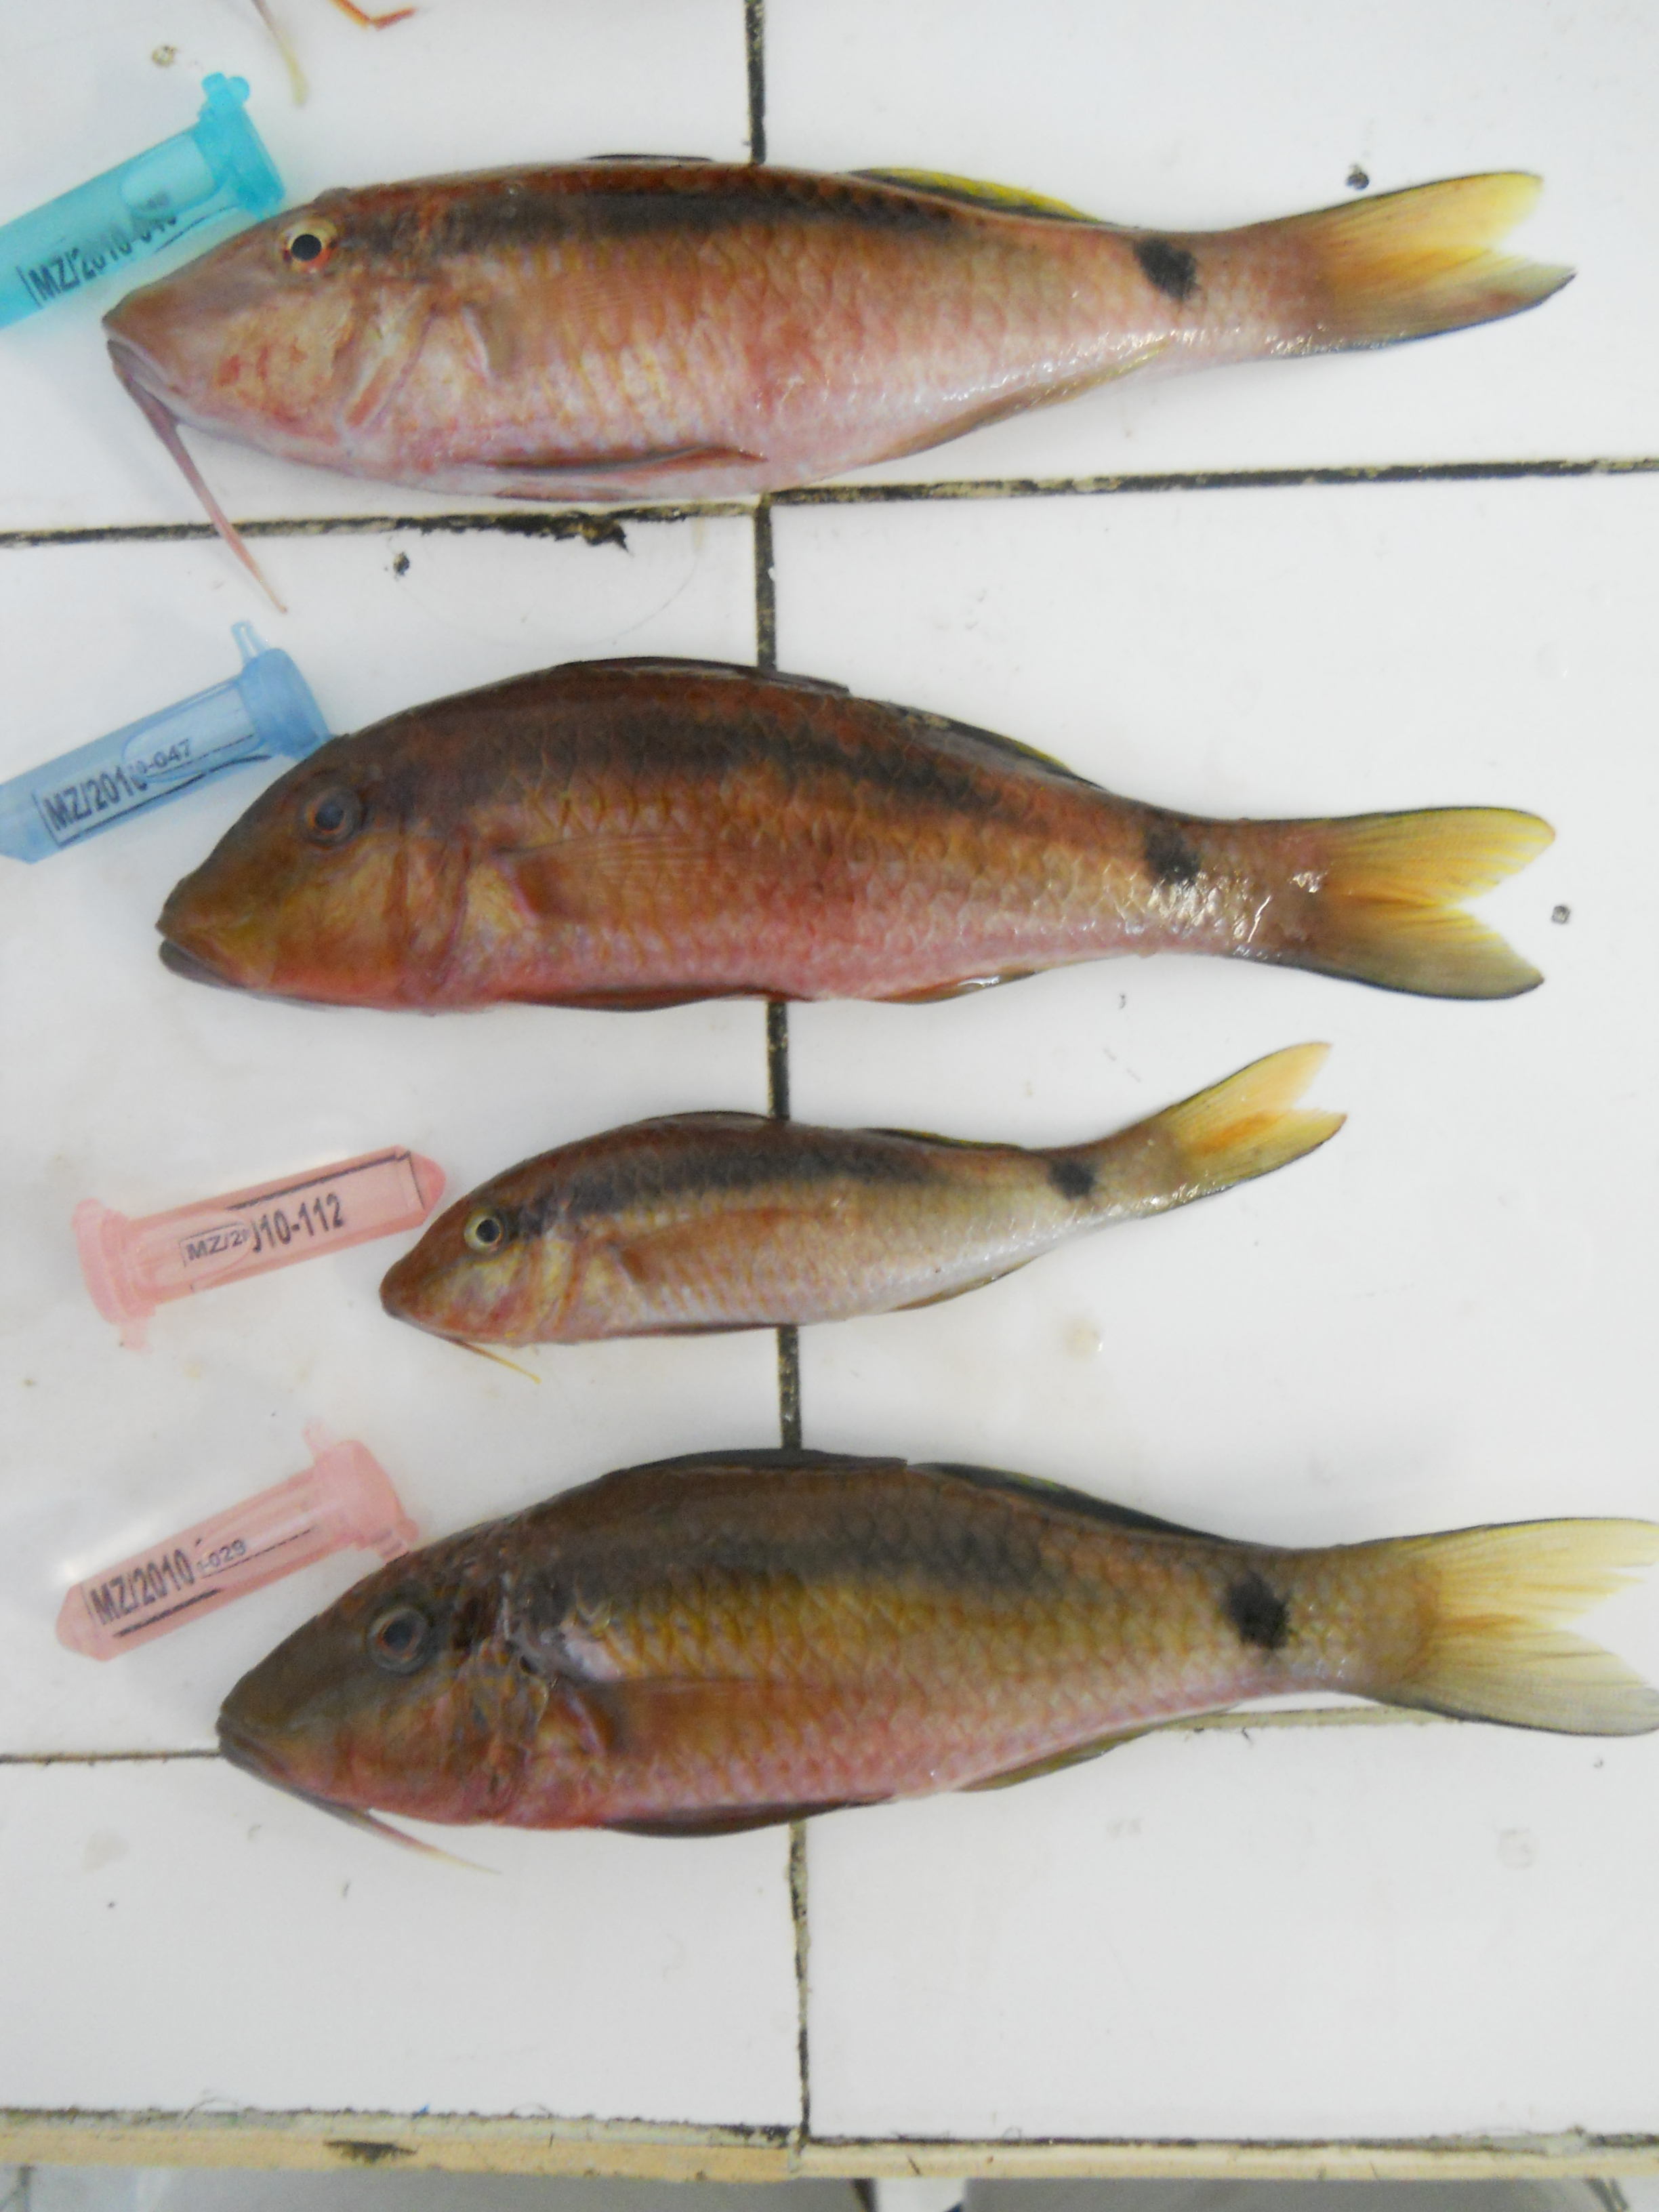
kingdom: Animalia
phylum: Chordata
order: Perciformes
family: Mullidae
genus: Parupeneus
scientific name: Parupeneus macronemus
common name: Long-barbel goatfish
